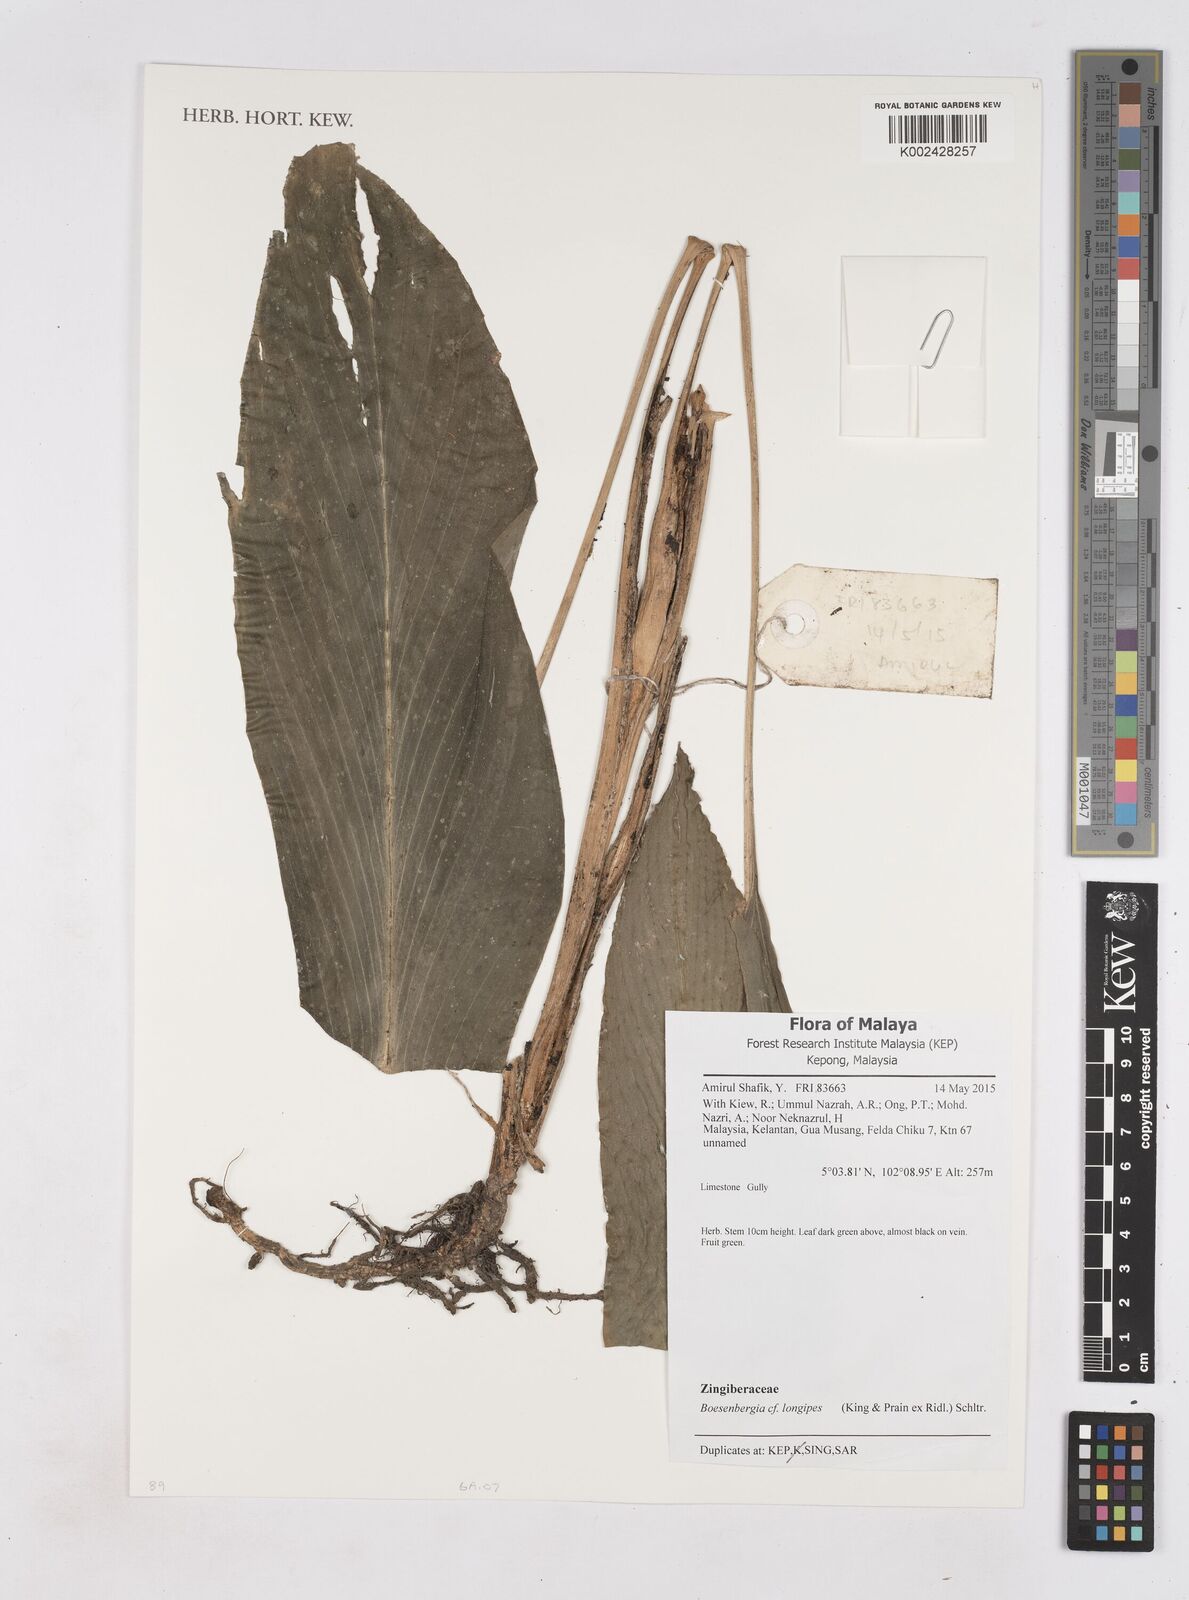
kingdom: Plantae
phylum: Tracheophyta
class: Liliopsida
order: Zingiberales
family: Zingiberaceae
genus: Boesenbergia
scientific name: Boesenbergia longipes
